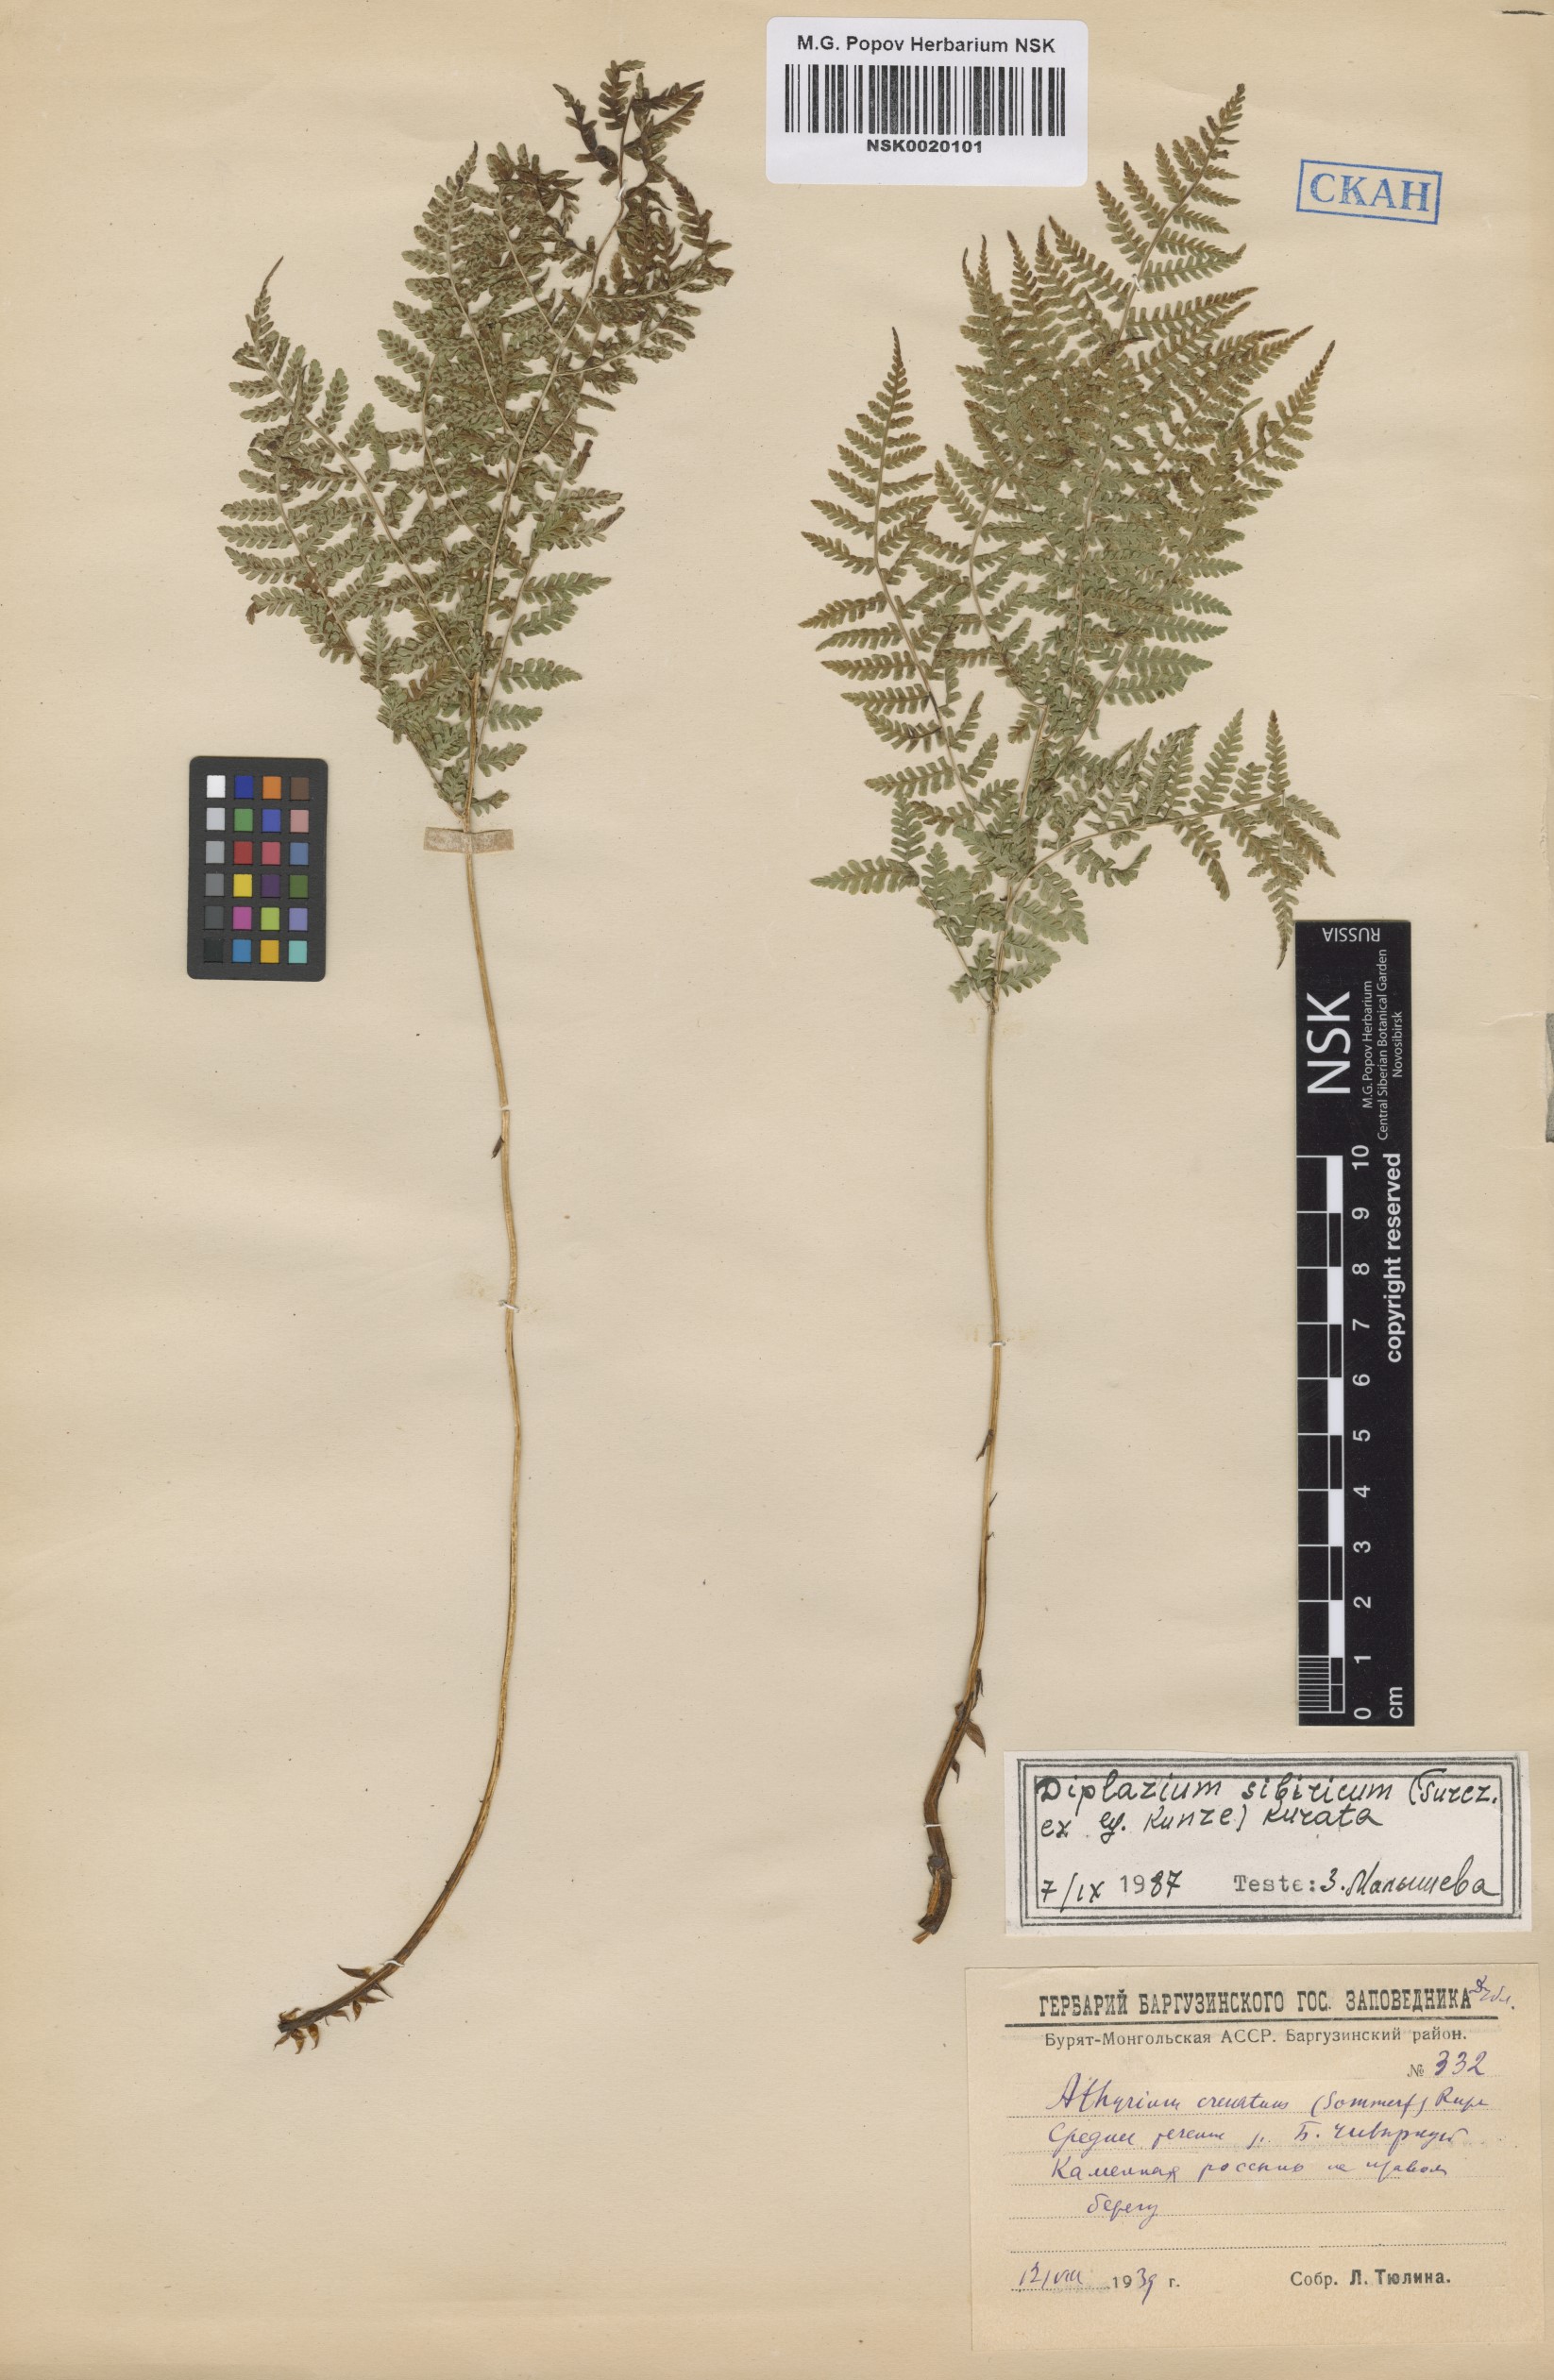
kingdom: Plantae
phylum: Tracheophyta
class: Polypodiopsida
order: Polypodiales
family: Athyriaceae
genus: Diplazium
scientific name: Diplazium sibiricum
